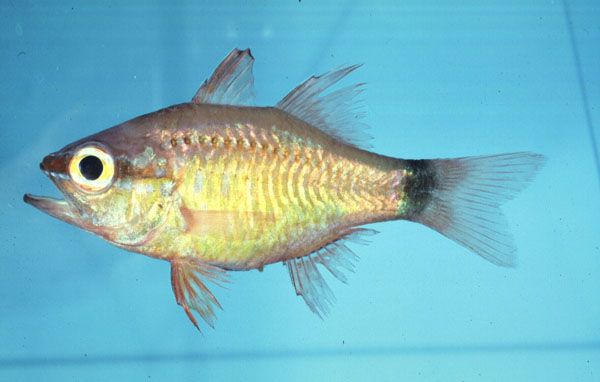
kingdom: Animalia
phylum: Chordata
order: Perciformes
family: Apogonidae
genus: Ostorhinchus
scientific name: Ostorhinchus fleurieu
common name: Bullseye cardinalfish
